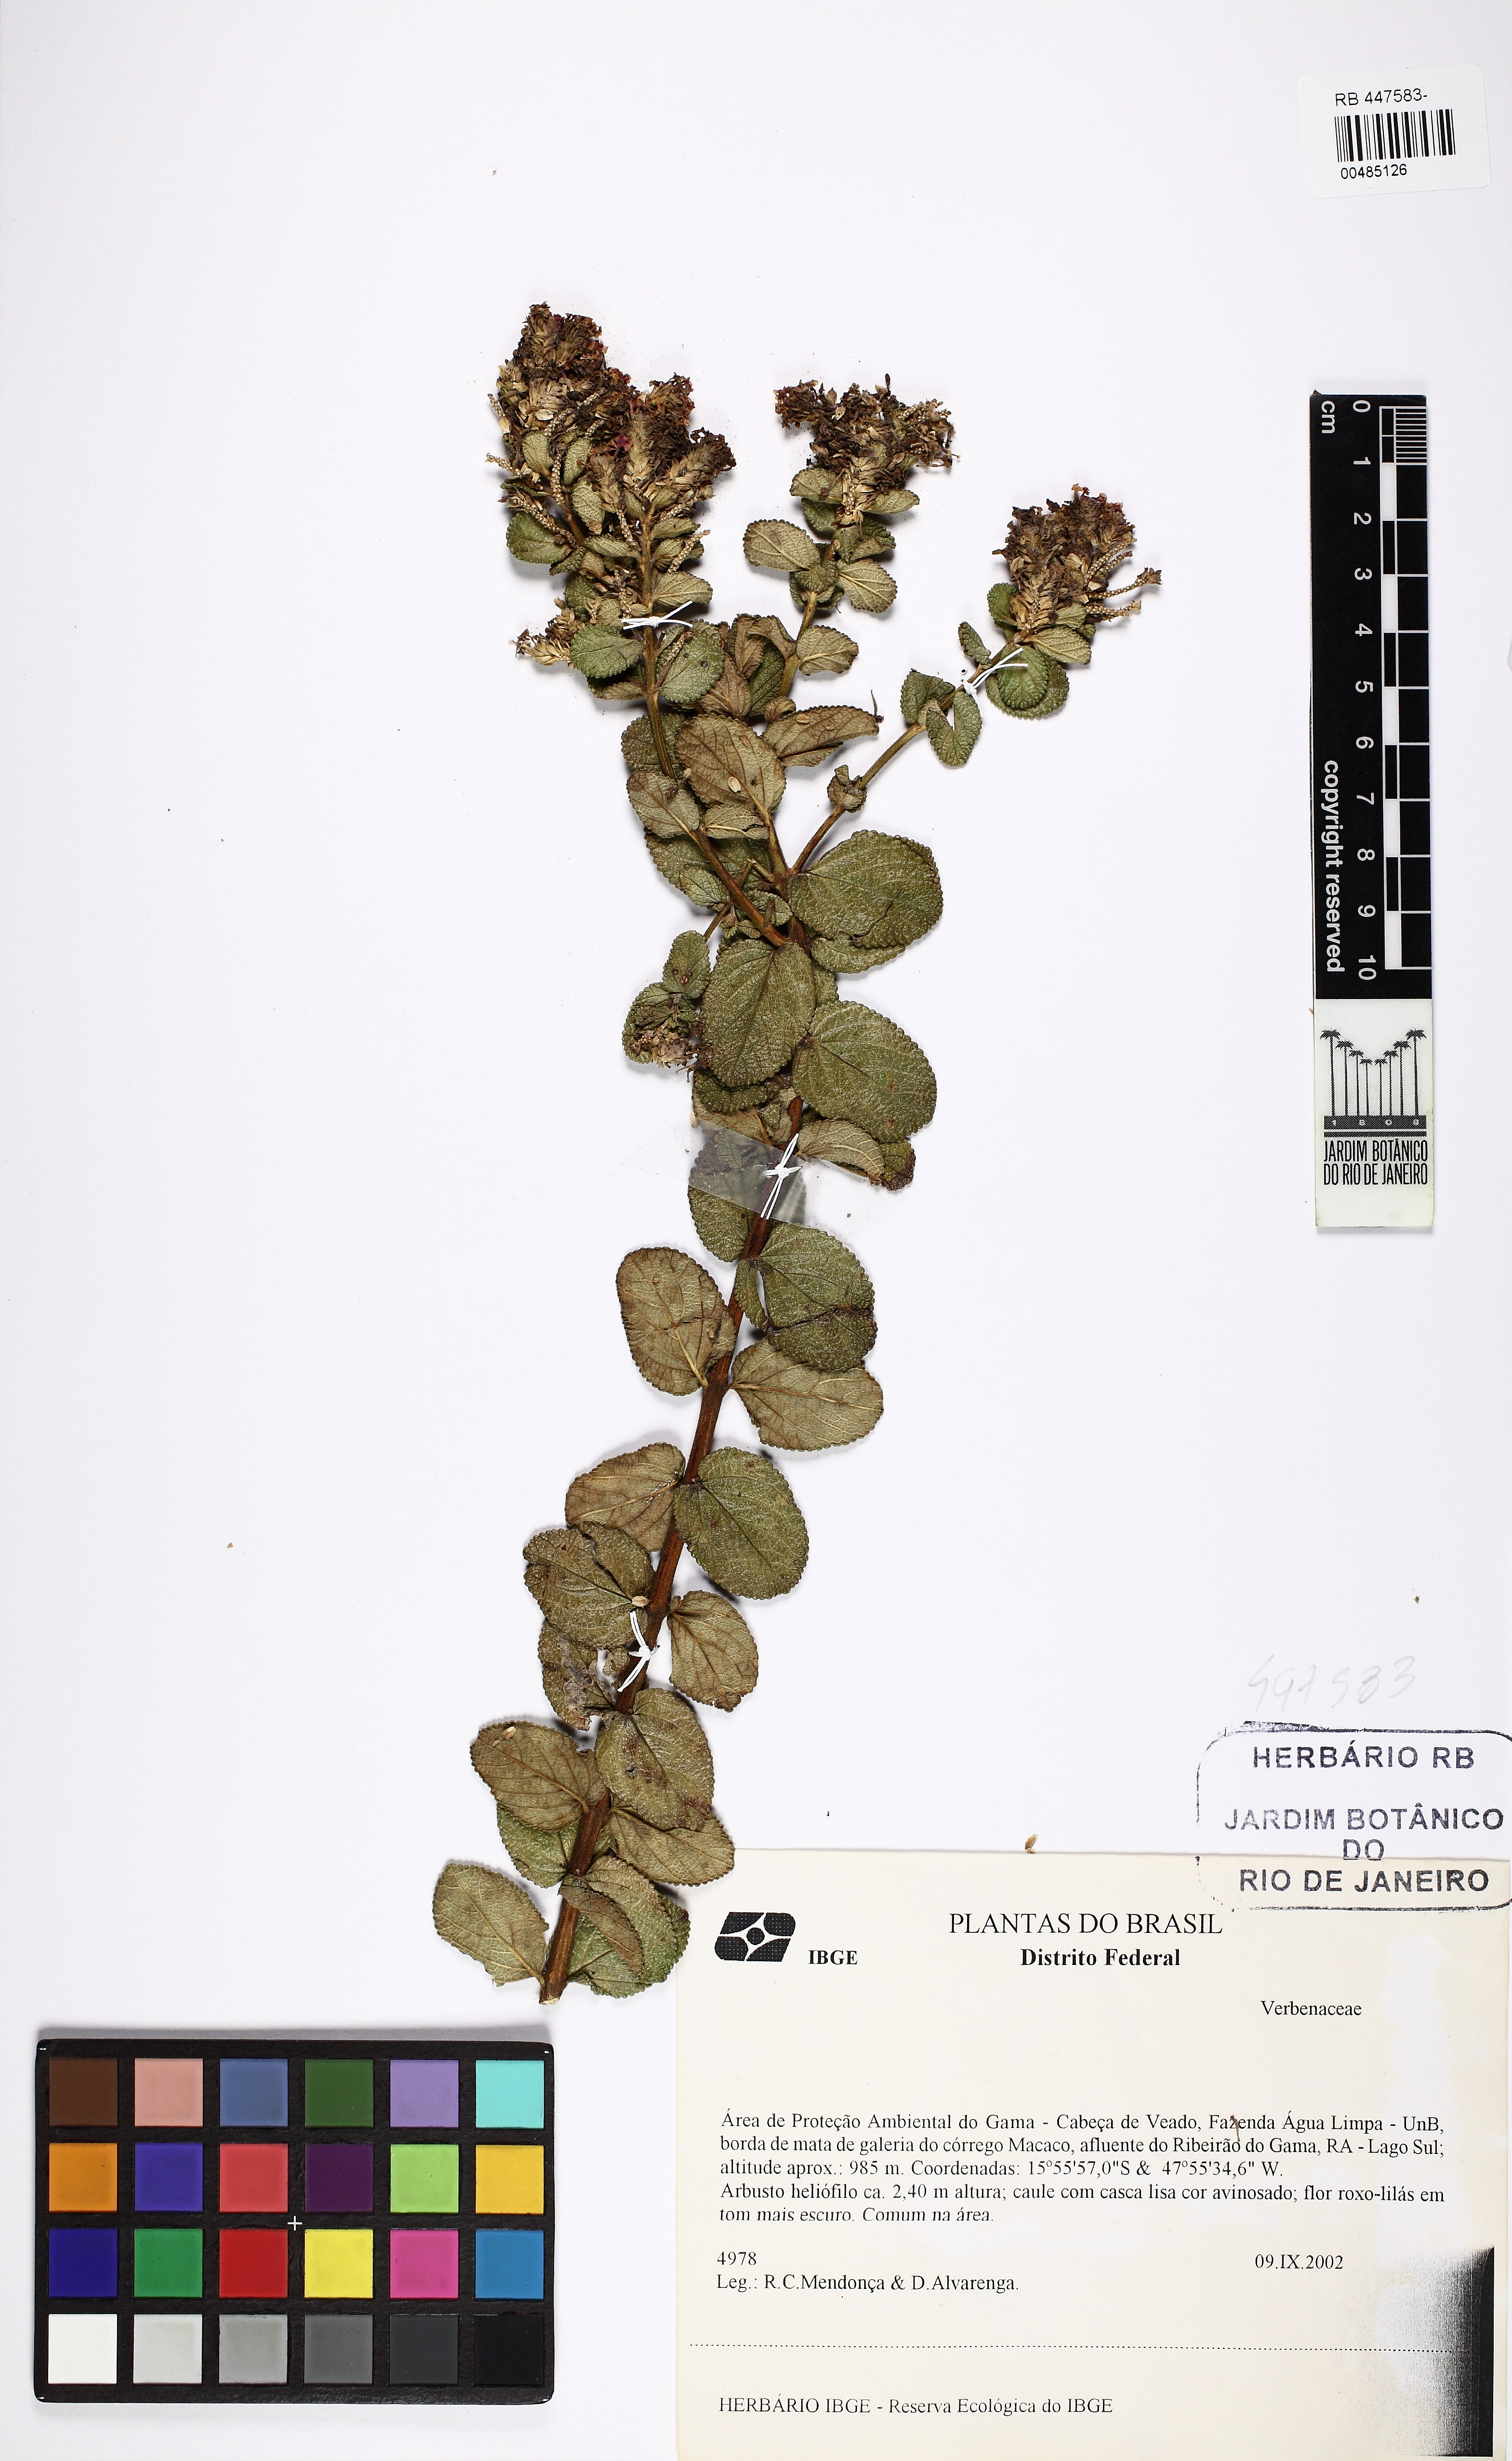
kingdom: Plantae
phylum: Tracheophyta
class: Magnoliopsida
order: Lamiales
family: Verbenaceae
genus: Lippia
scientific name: Lippia lacunosa
